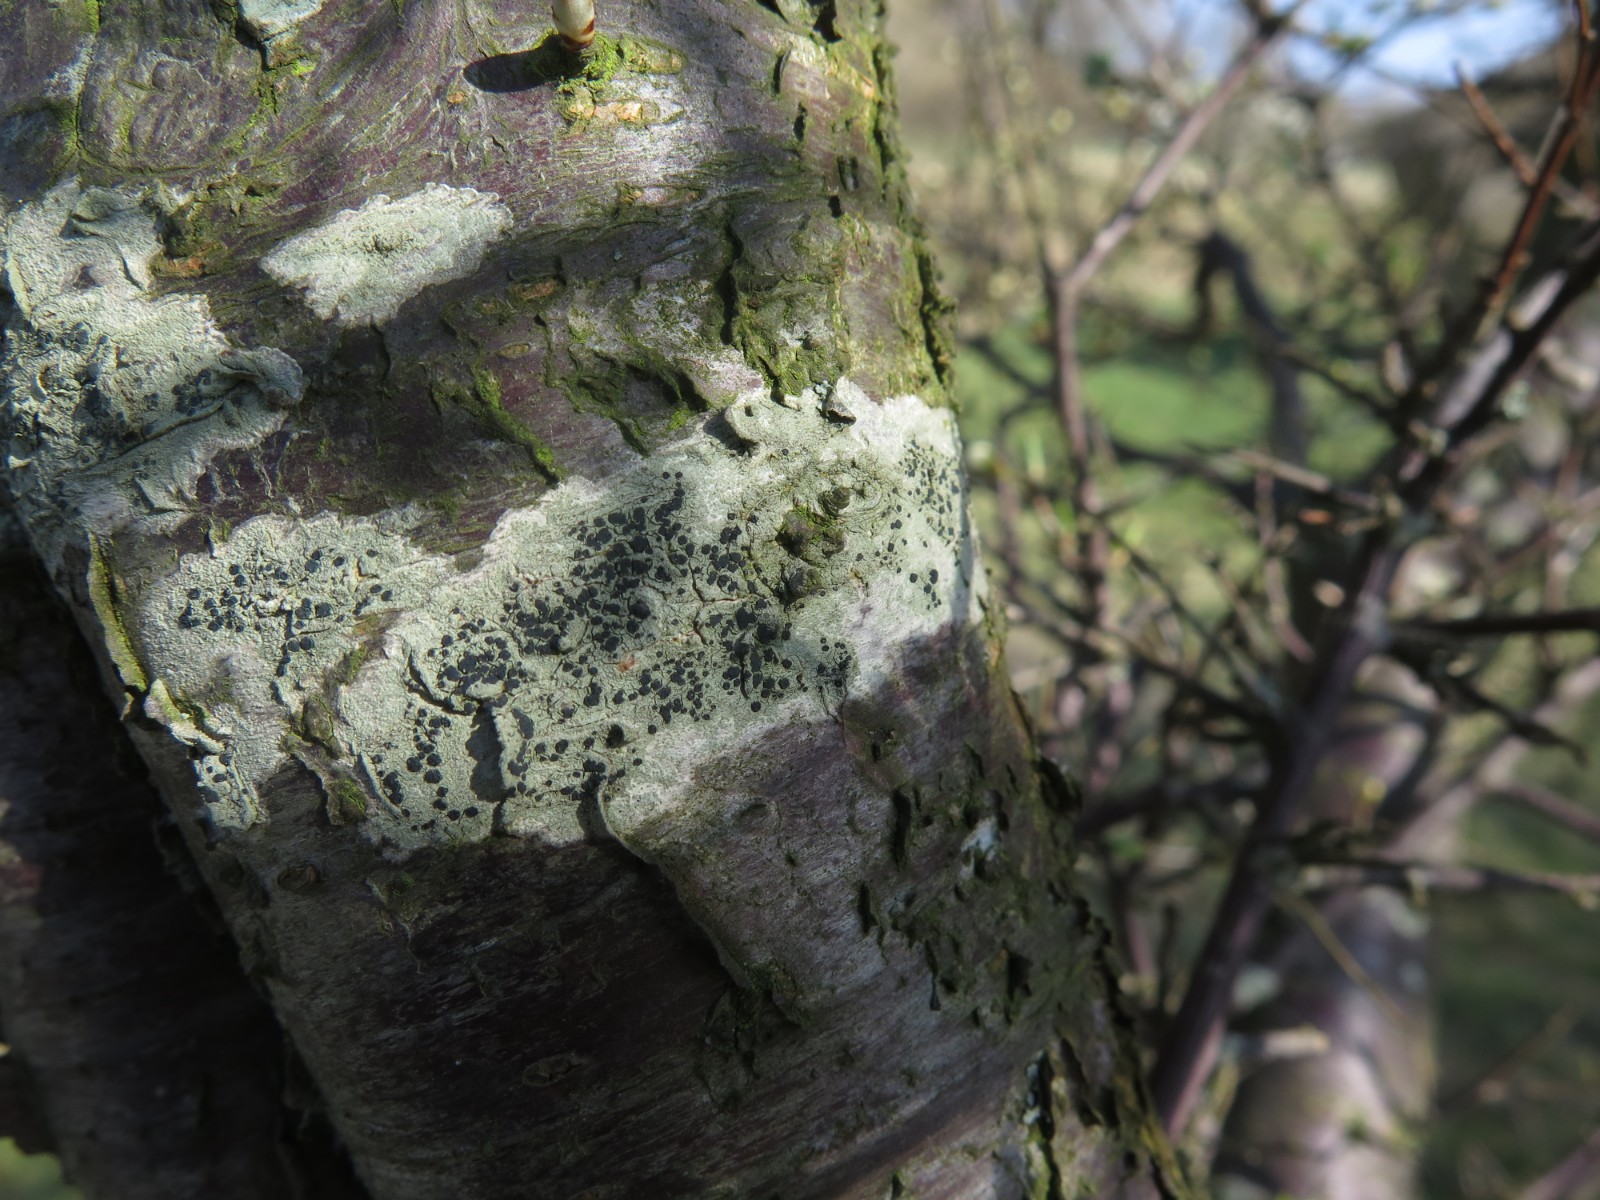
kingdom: Fungi
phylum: Ascomycota
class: Lecanoromycetes
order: Lecanorales
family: Lecanoraceae
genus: Lecidella
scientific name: Lecidella elaeochroma
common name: grågrøn skivelav
